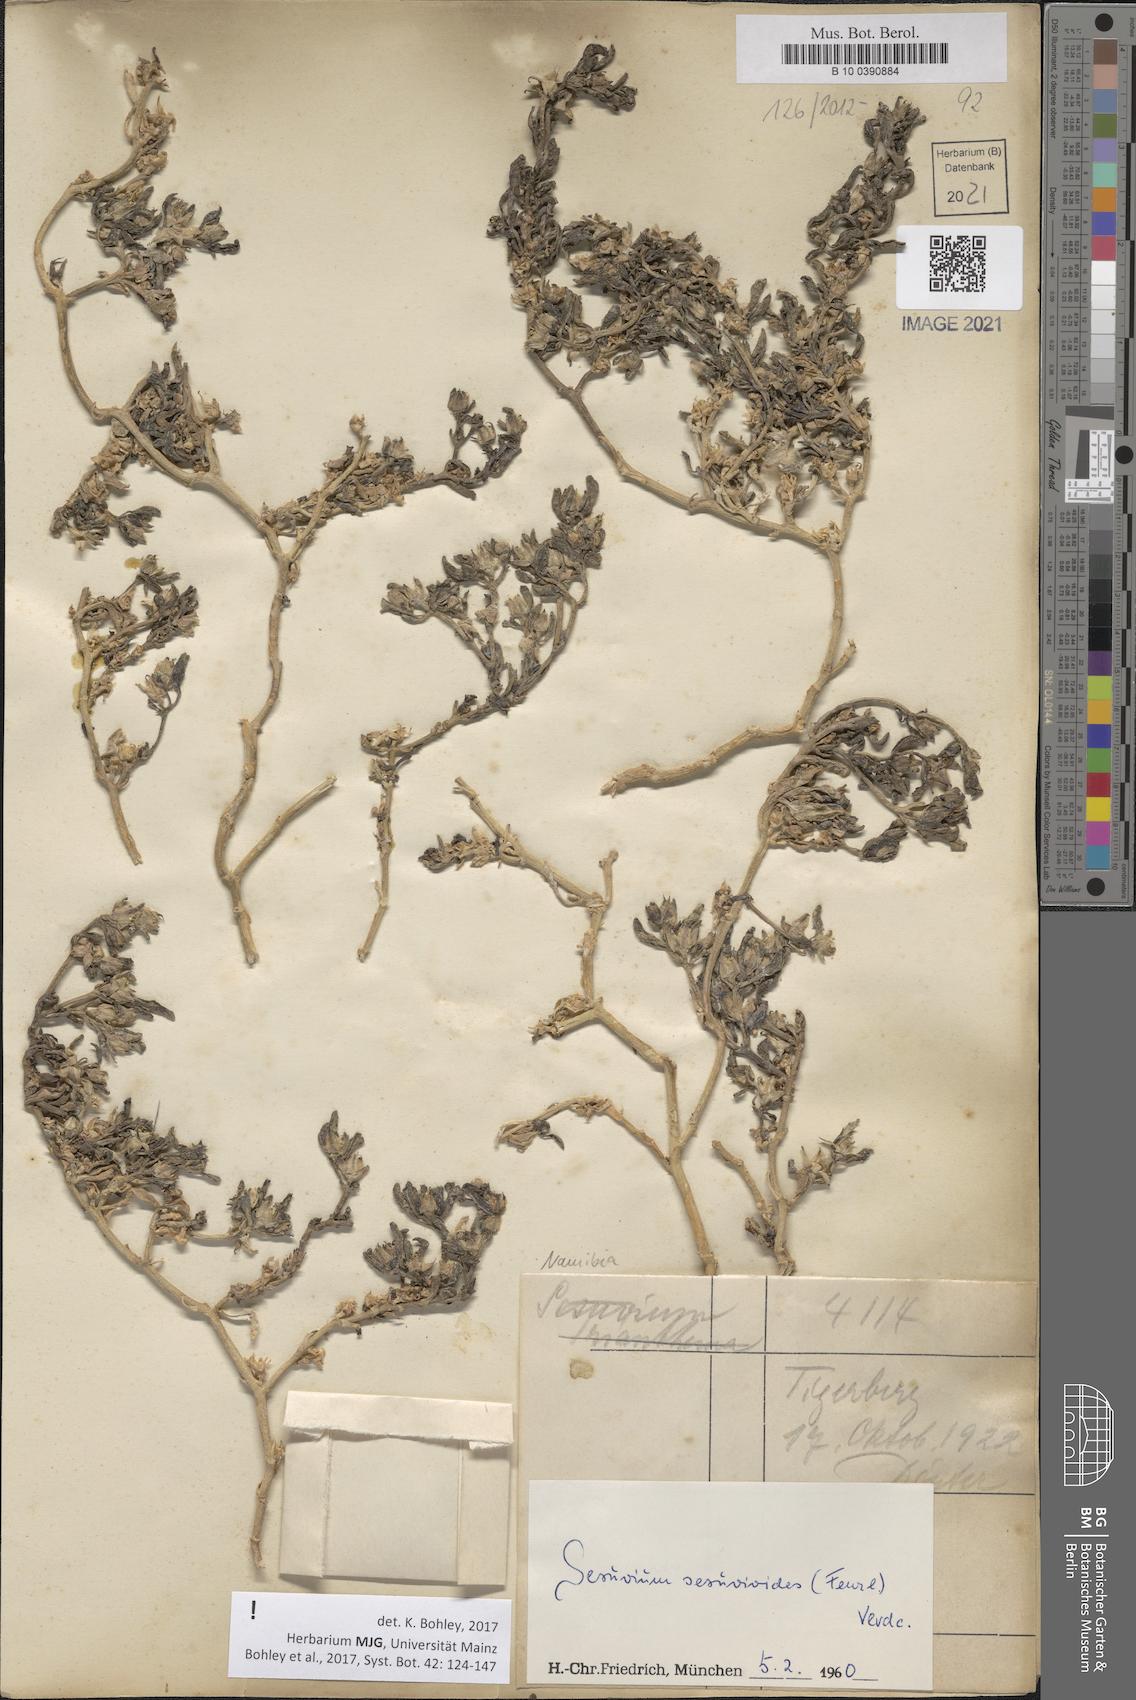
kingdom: Plantae
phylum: Tracheophyta
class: Magnoliopsida
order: Caryophyllales
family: Aizoaceae
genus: Sesuvium
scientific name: Sesuvium sesuvioides
